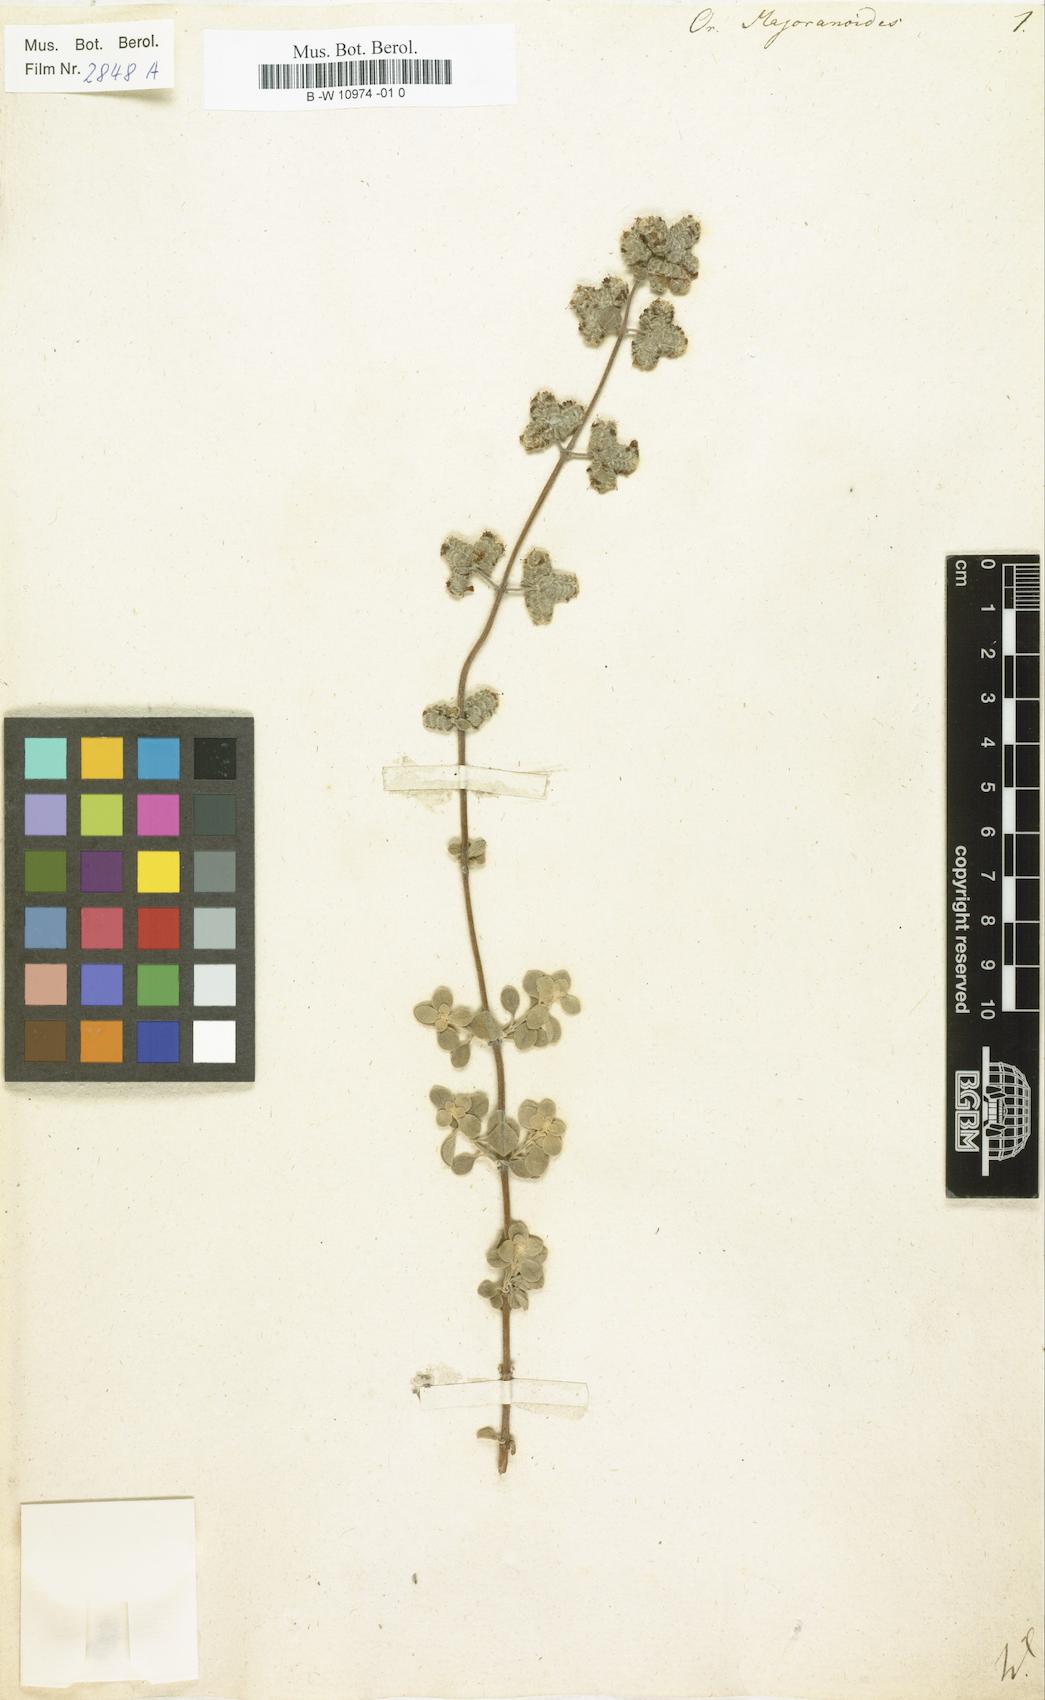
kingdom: Plantae
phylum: Tracheophyta
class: Magnoliopsida
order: Lamiales
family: Lamiaceae
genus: Origanum
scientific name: Origanum majorana
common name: Sweet marjoram
